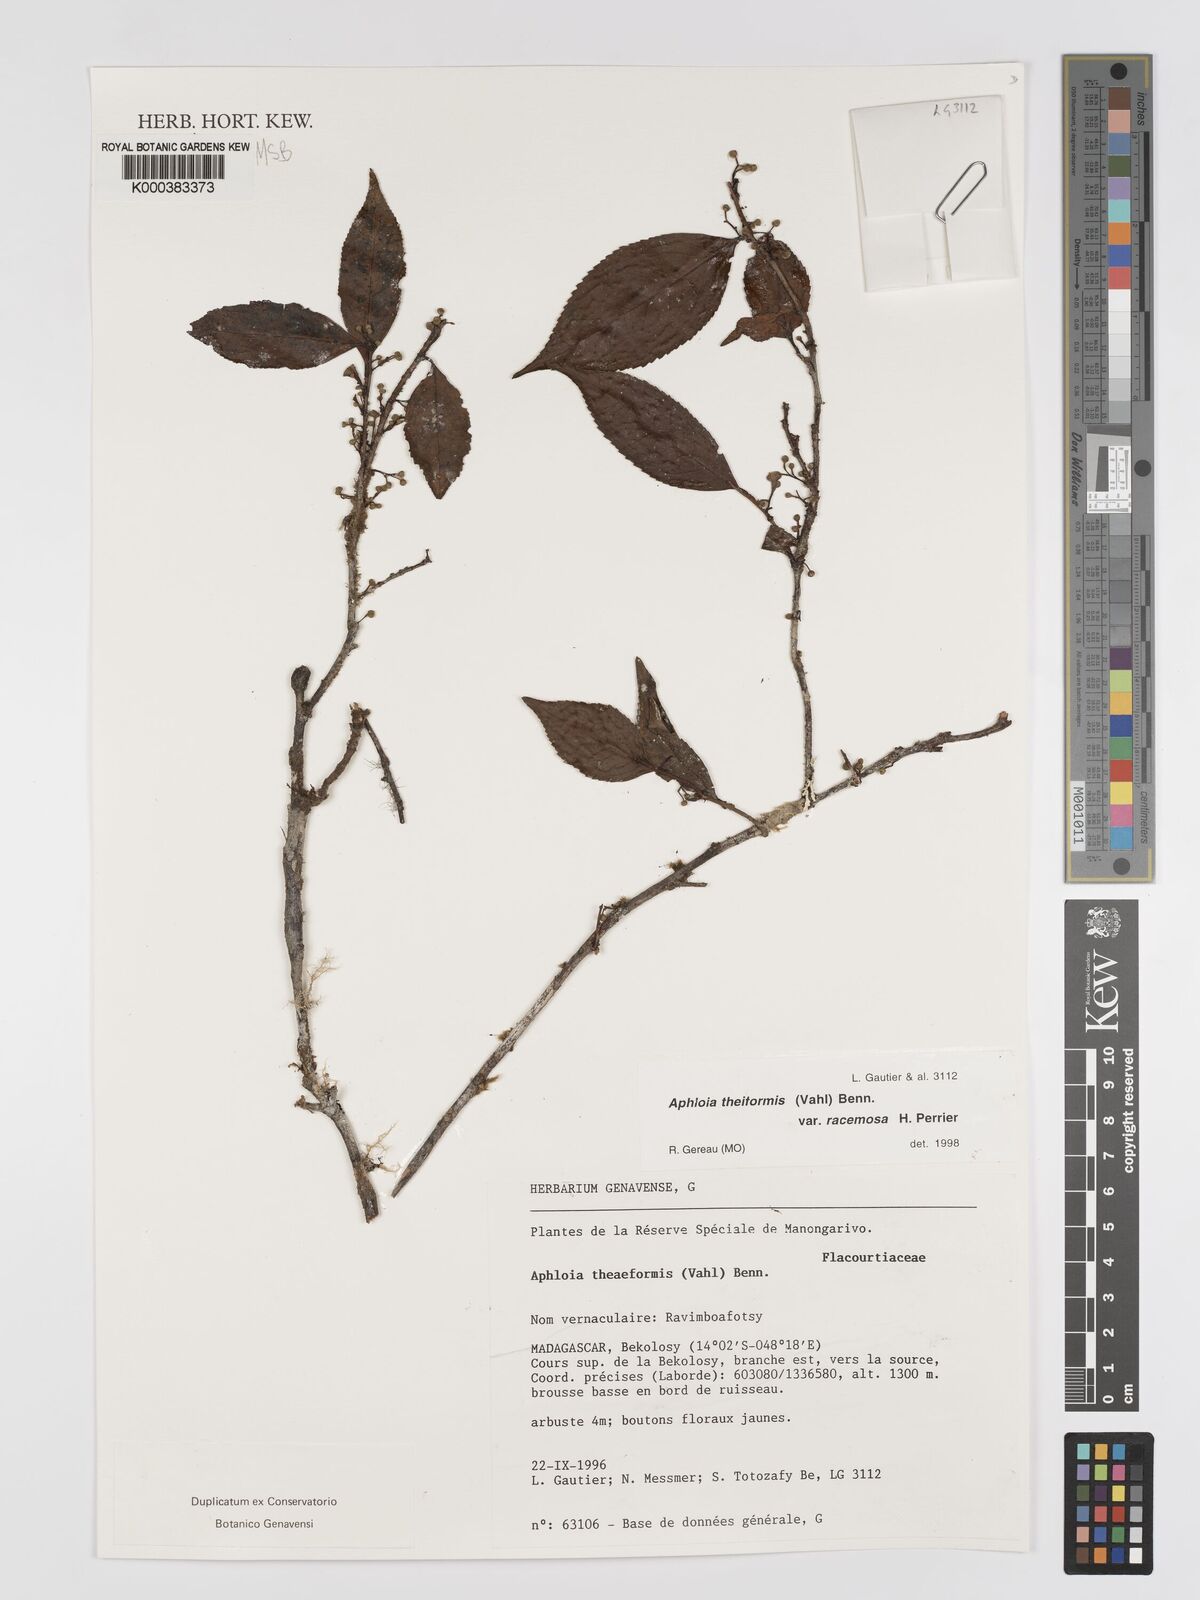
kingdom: Plantae
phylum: Tracheophyta
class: Magnoliopsida
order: Crossosomatales
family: Aphloiaceae
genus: Aphloia
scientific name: Aphloia theiformis
